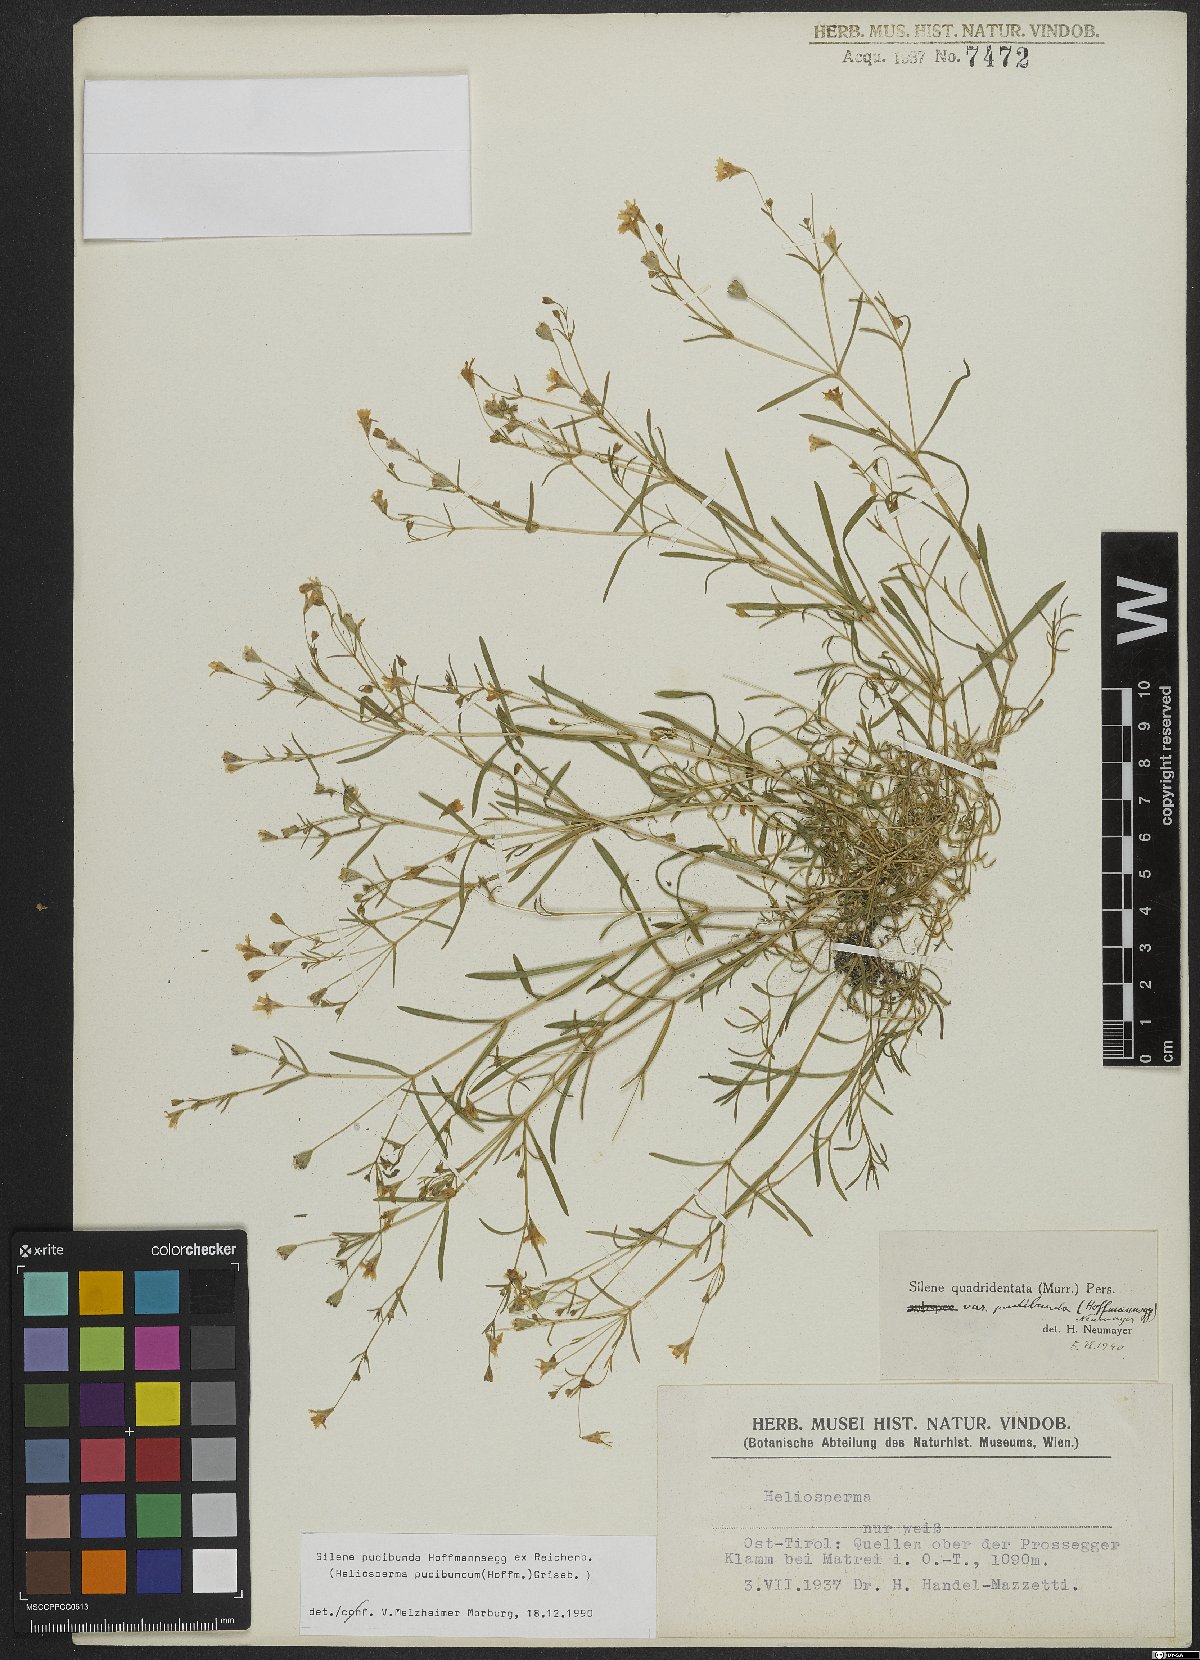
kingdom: Plantae
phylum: Tracheophyta
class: Magnoliopsida
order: Caryophyllales
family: Caryophyllaceae
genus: Heliosperma
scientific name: Heliosperma pudibundum
